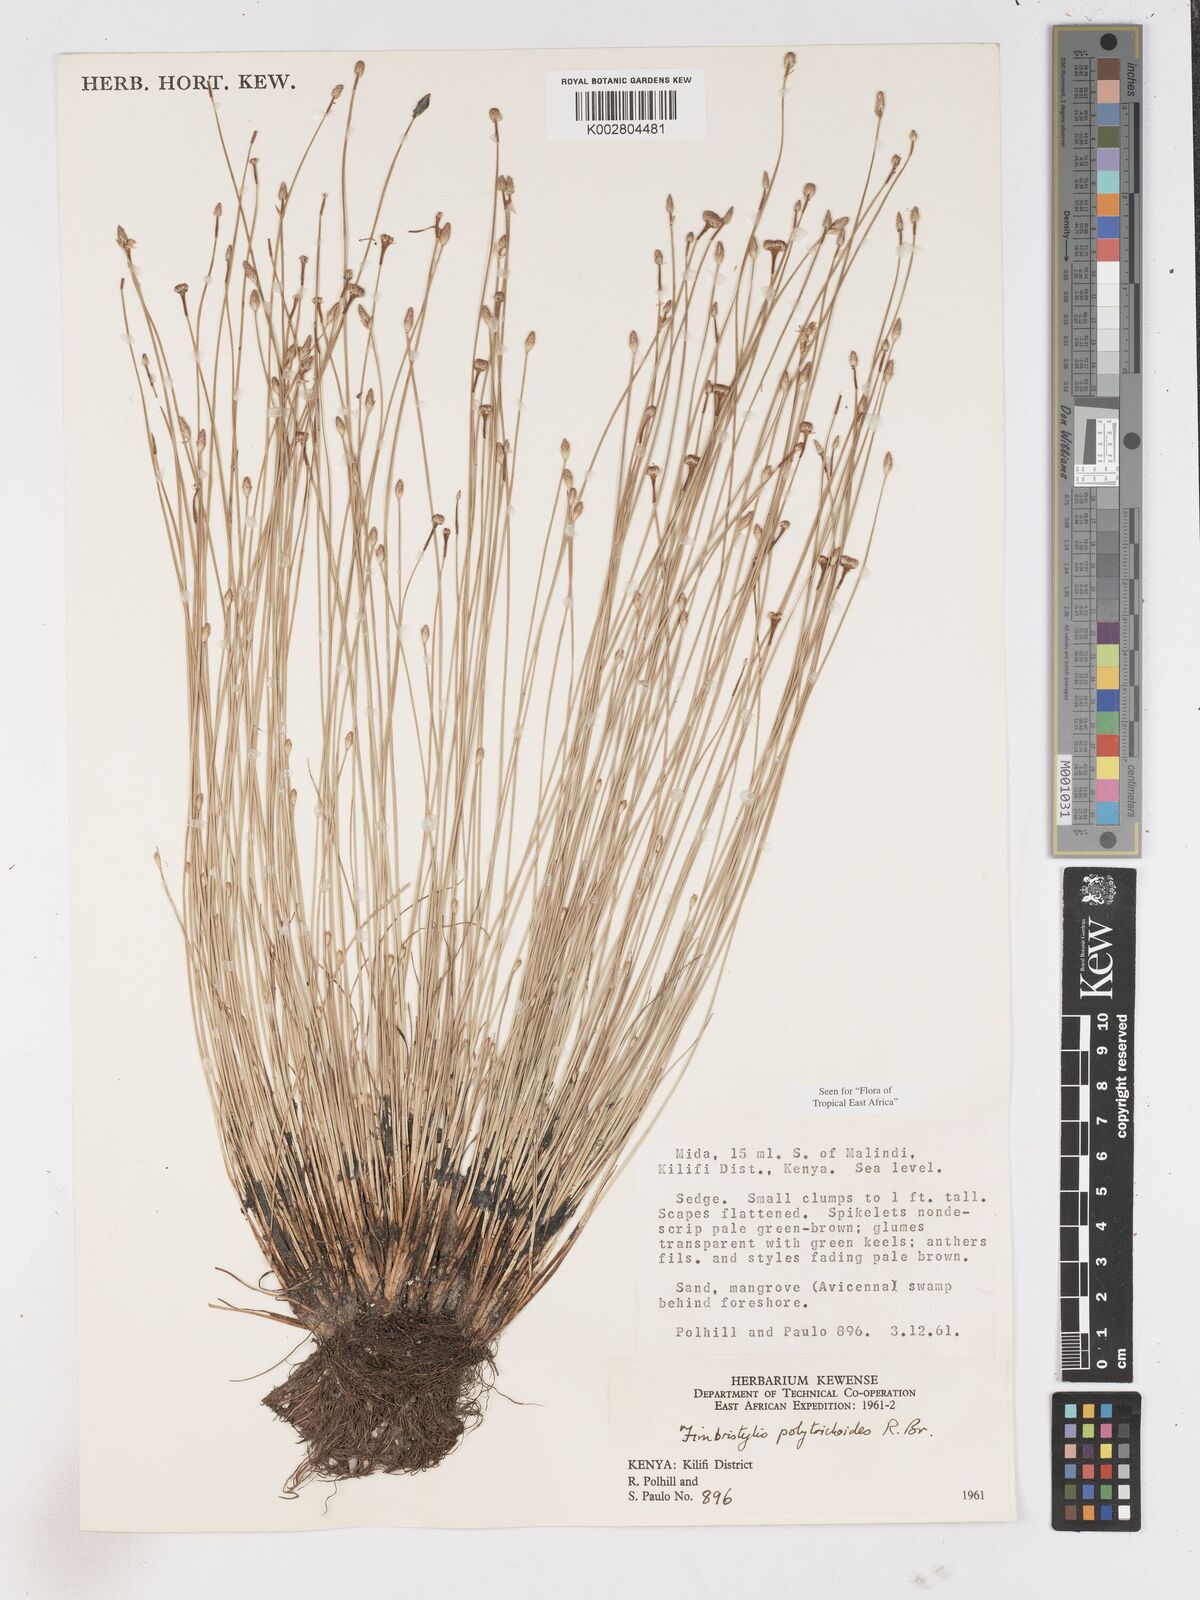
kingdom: Plantae
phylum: Tracheophyta
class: Liliopsida
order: Poales
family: Cyperaceae
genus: Fimbristylis
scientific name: Fimbristylis polytrichoides
